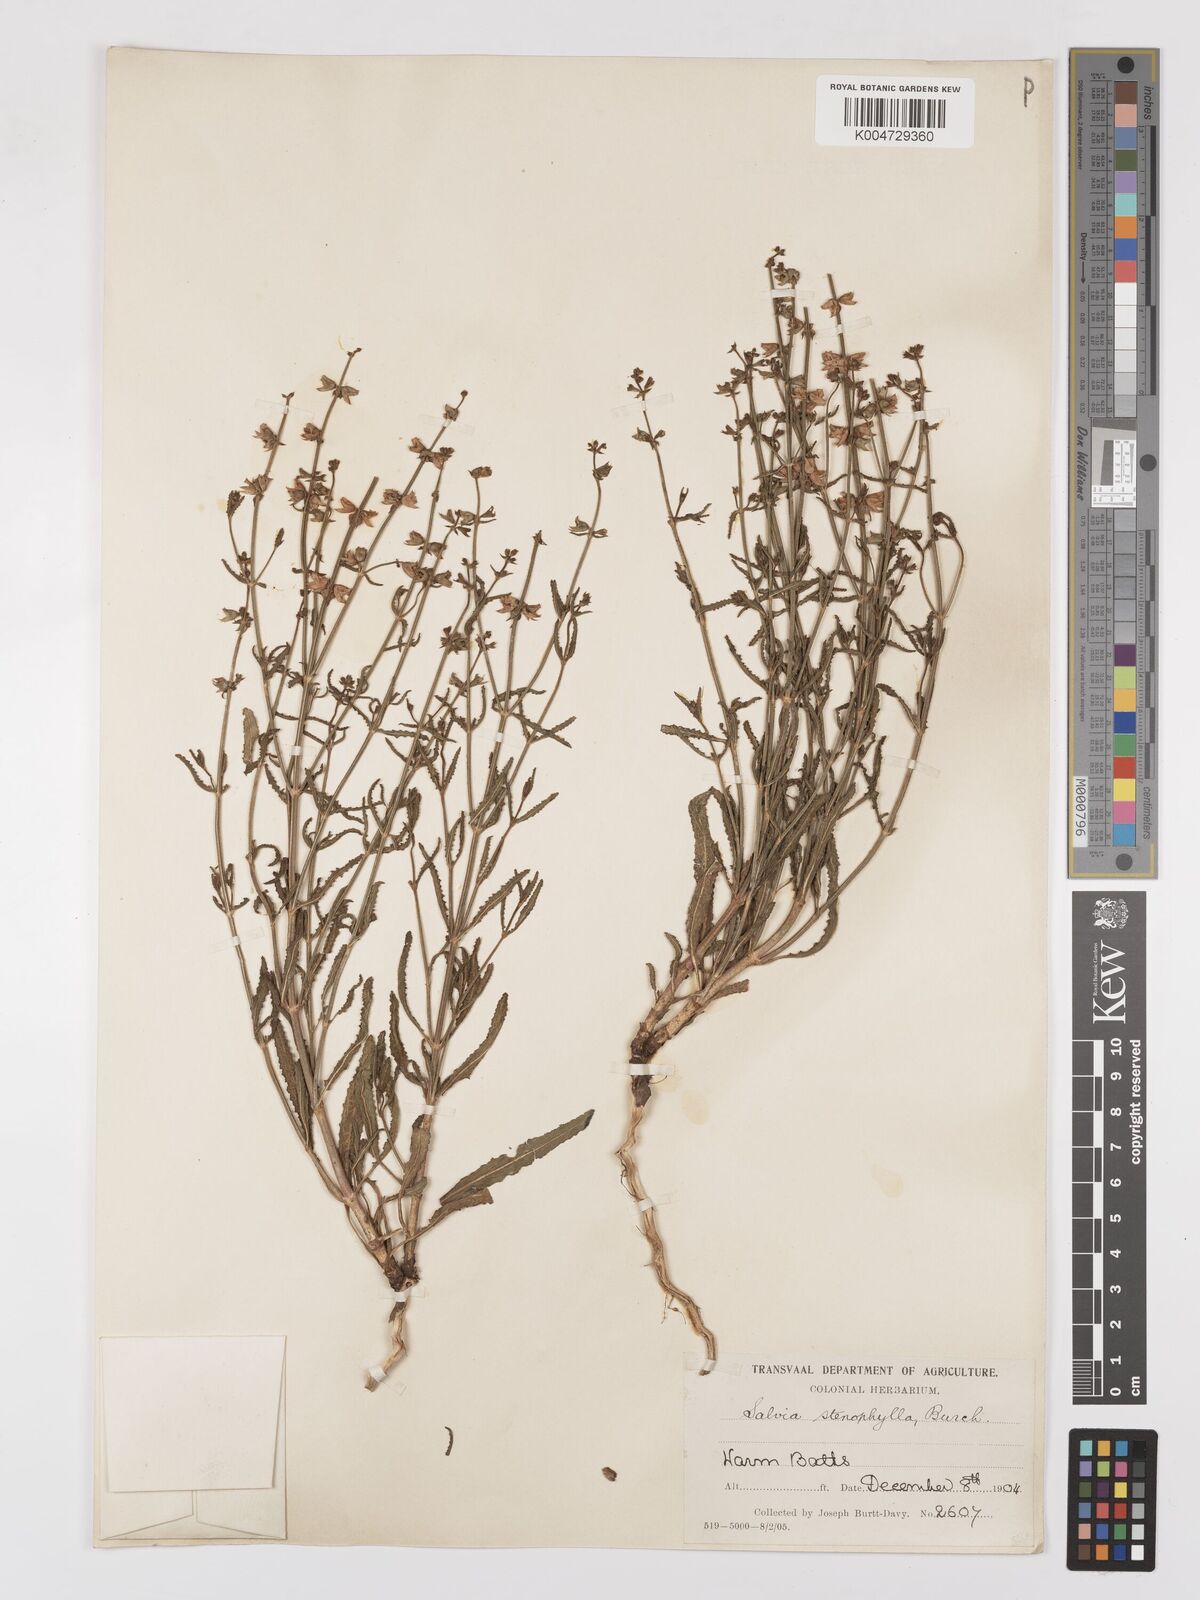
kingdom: Plantae
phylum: Tracheophyta
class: Magnoliopsida
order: Lamiales
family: Lamiaceae
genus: Salvia
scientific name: Salvia stenophylla
